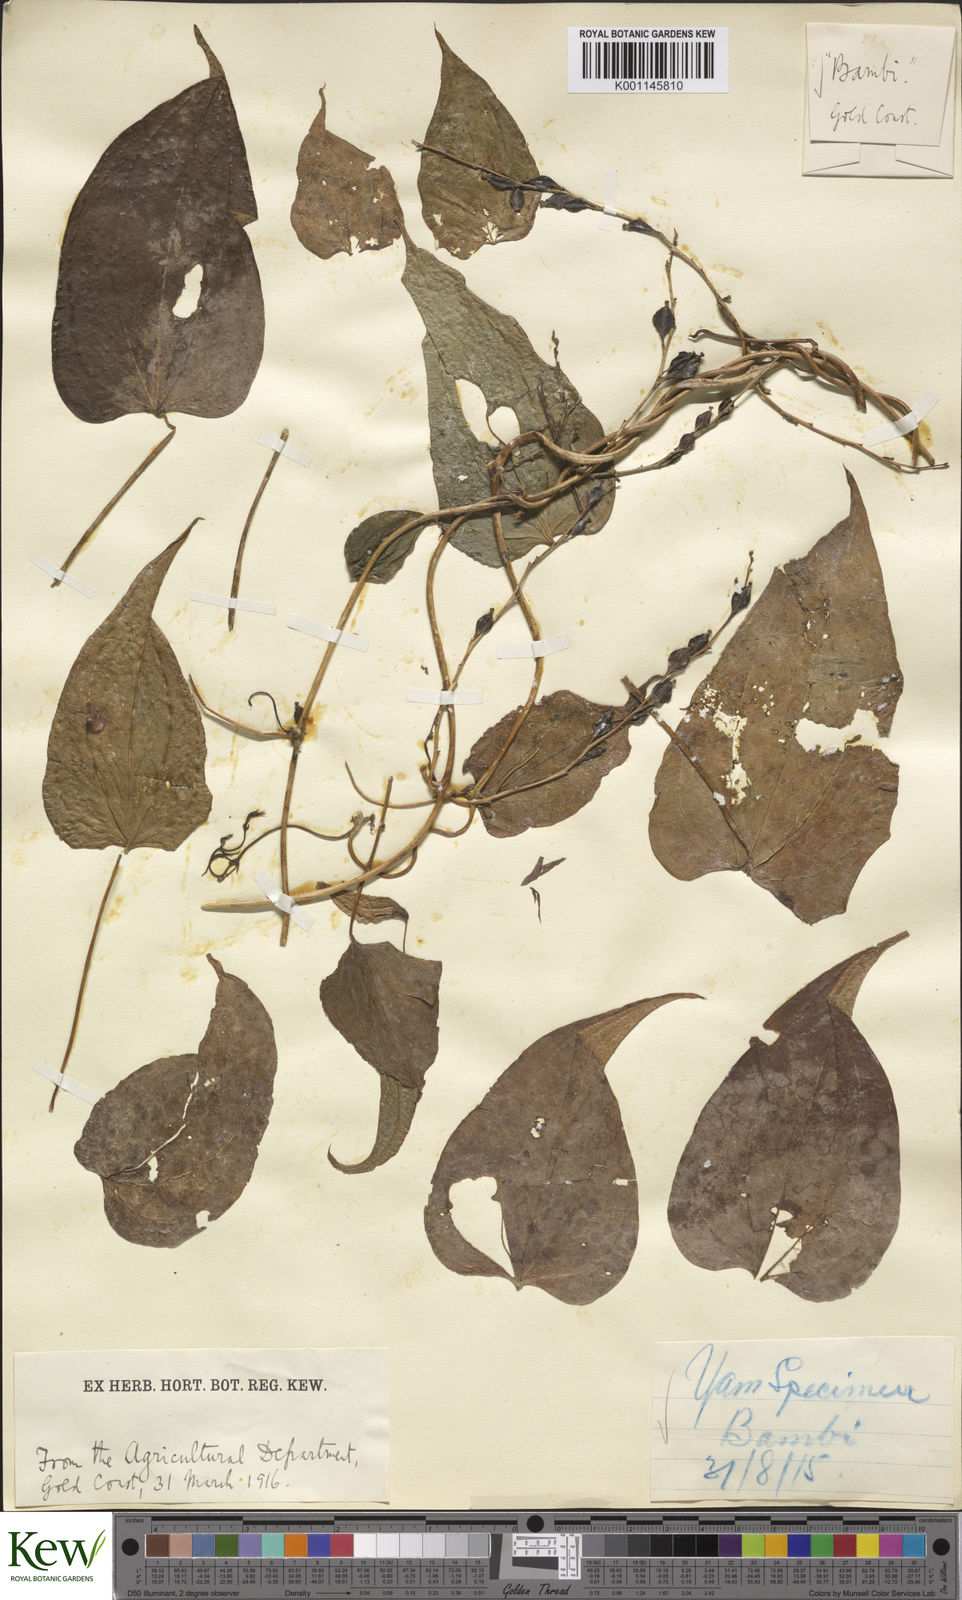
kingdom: Plantae
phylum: Tracheophyta
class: Liliopsida
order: Dioscoreales
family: Dioscoreaceae
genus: Dioscorea
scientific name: Dioscorea cayenensis
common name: Attoto yam
